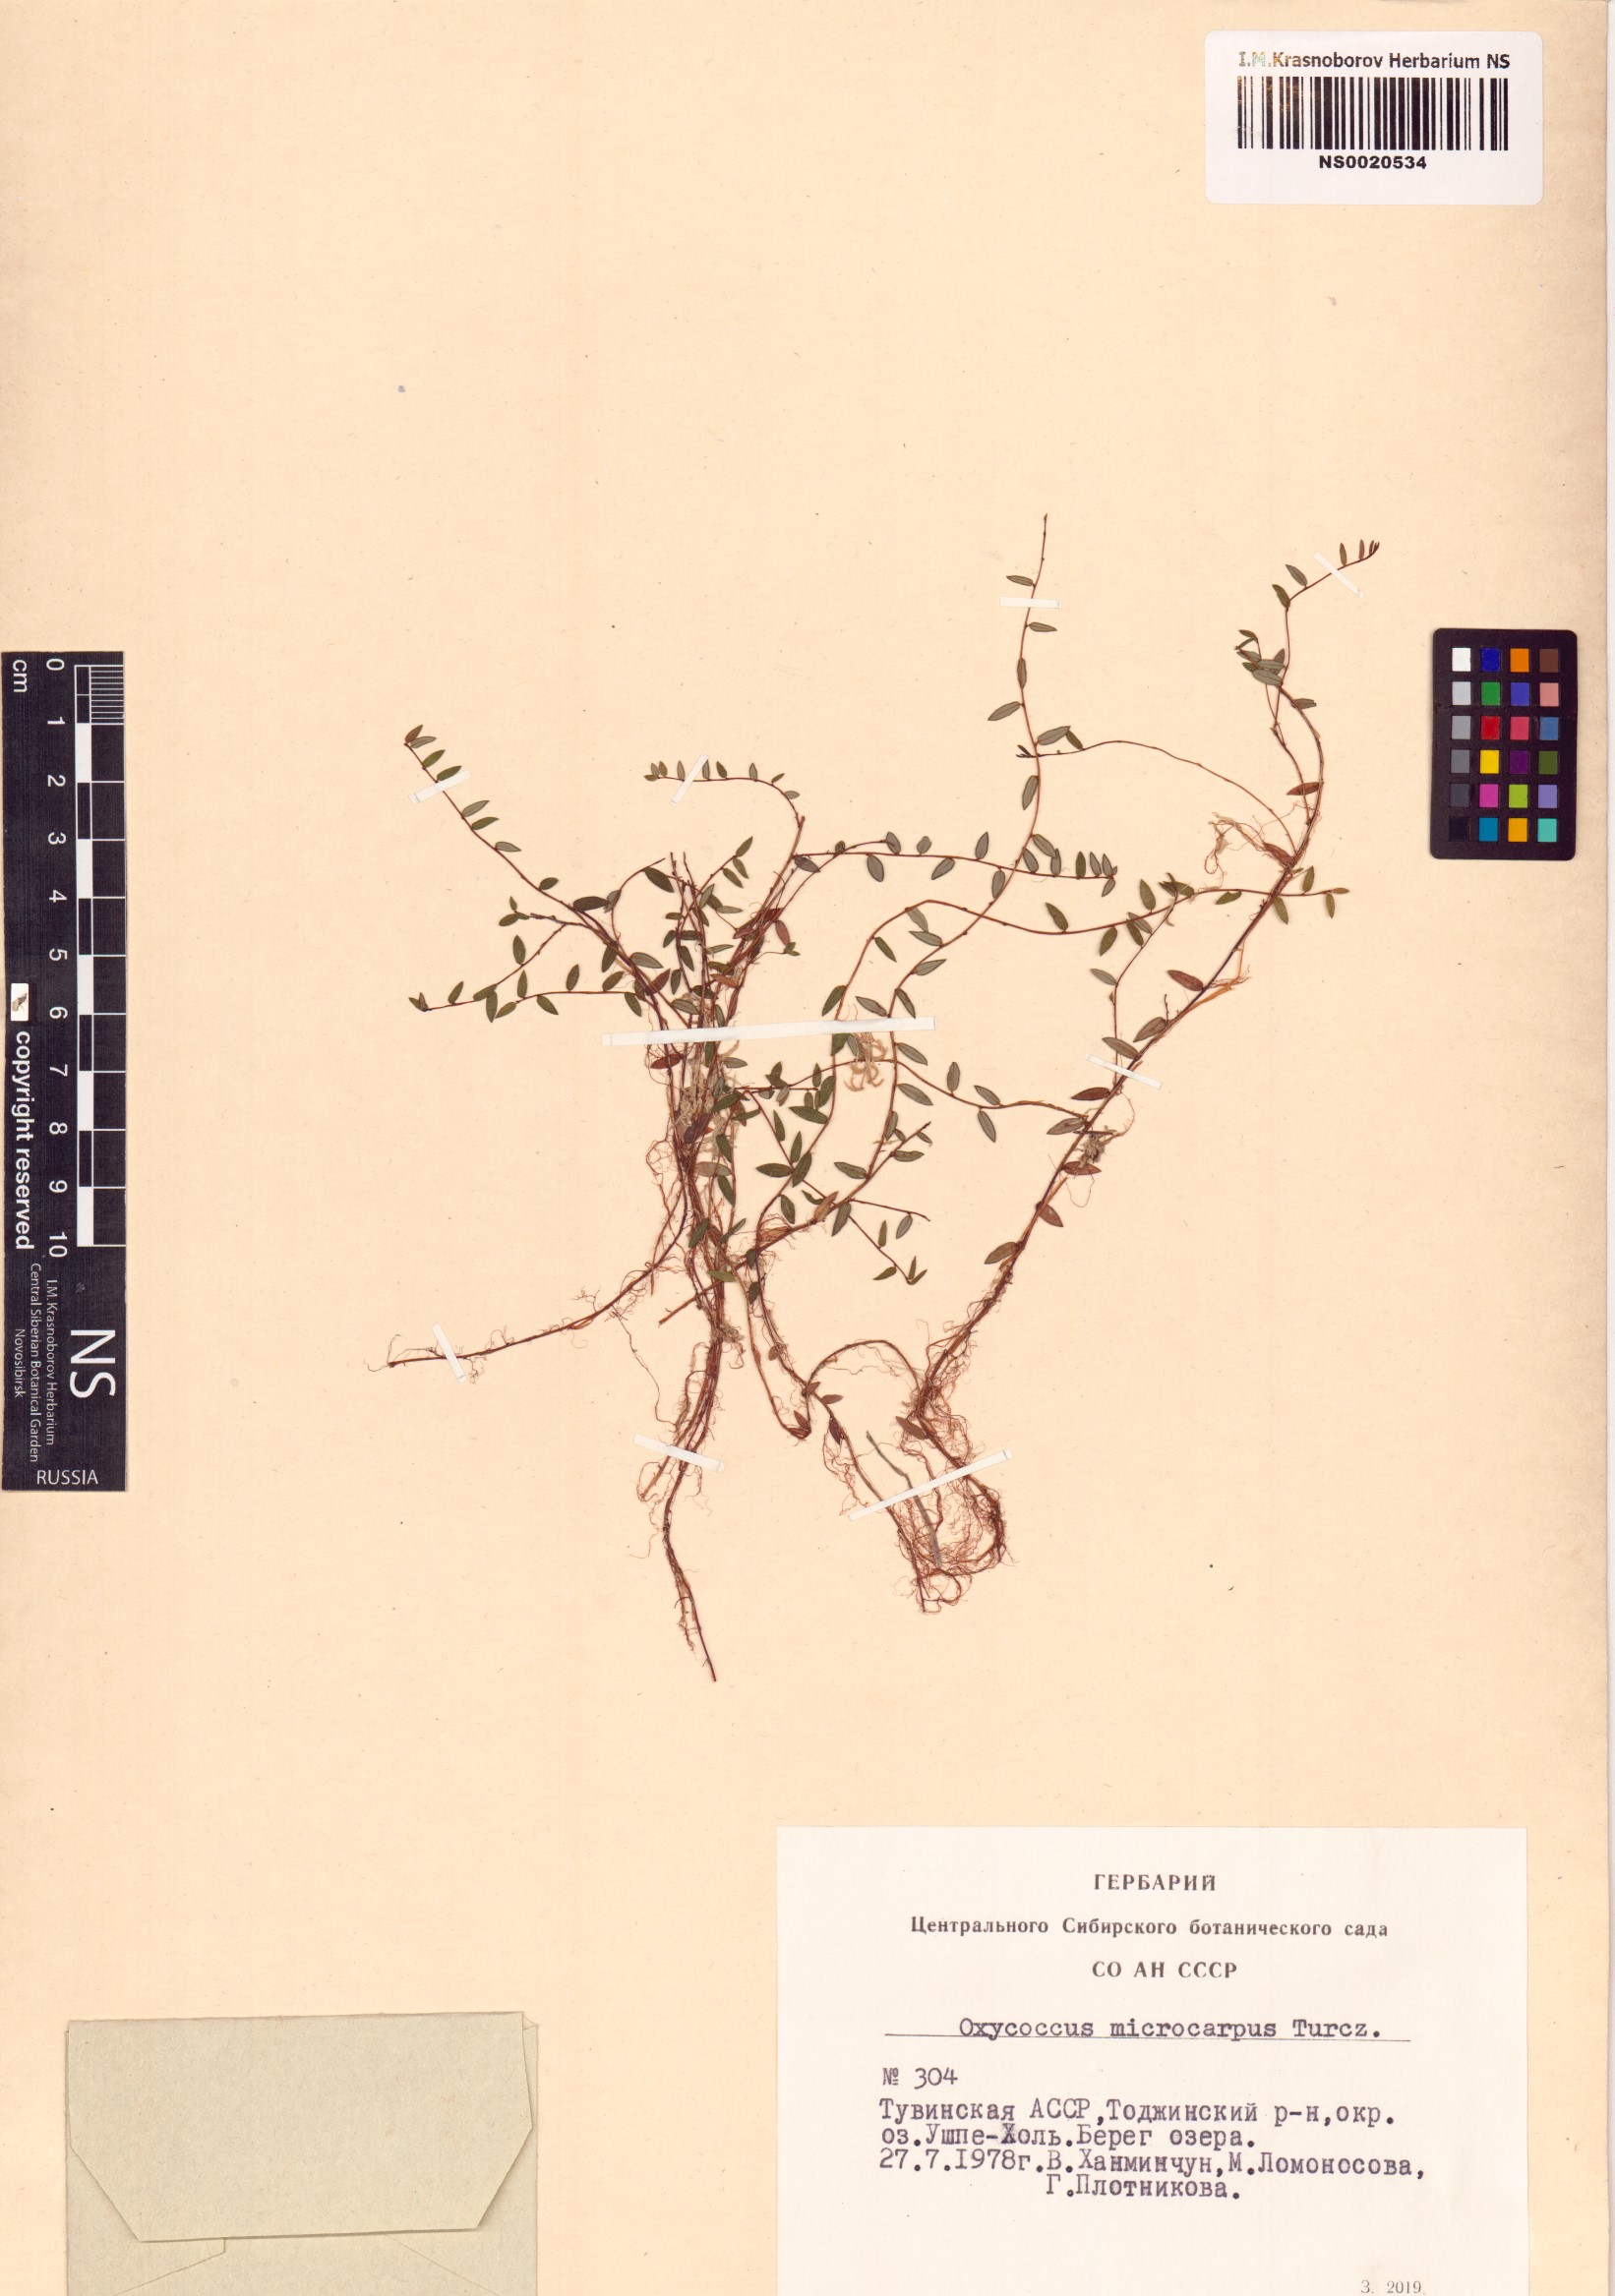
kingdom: Plantae
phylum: Tracheophyta
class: Magnoliopsida
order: Ericales
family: Ericaceae
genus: Vaccinium
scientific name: Vaccinium microcarpum
